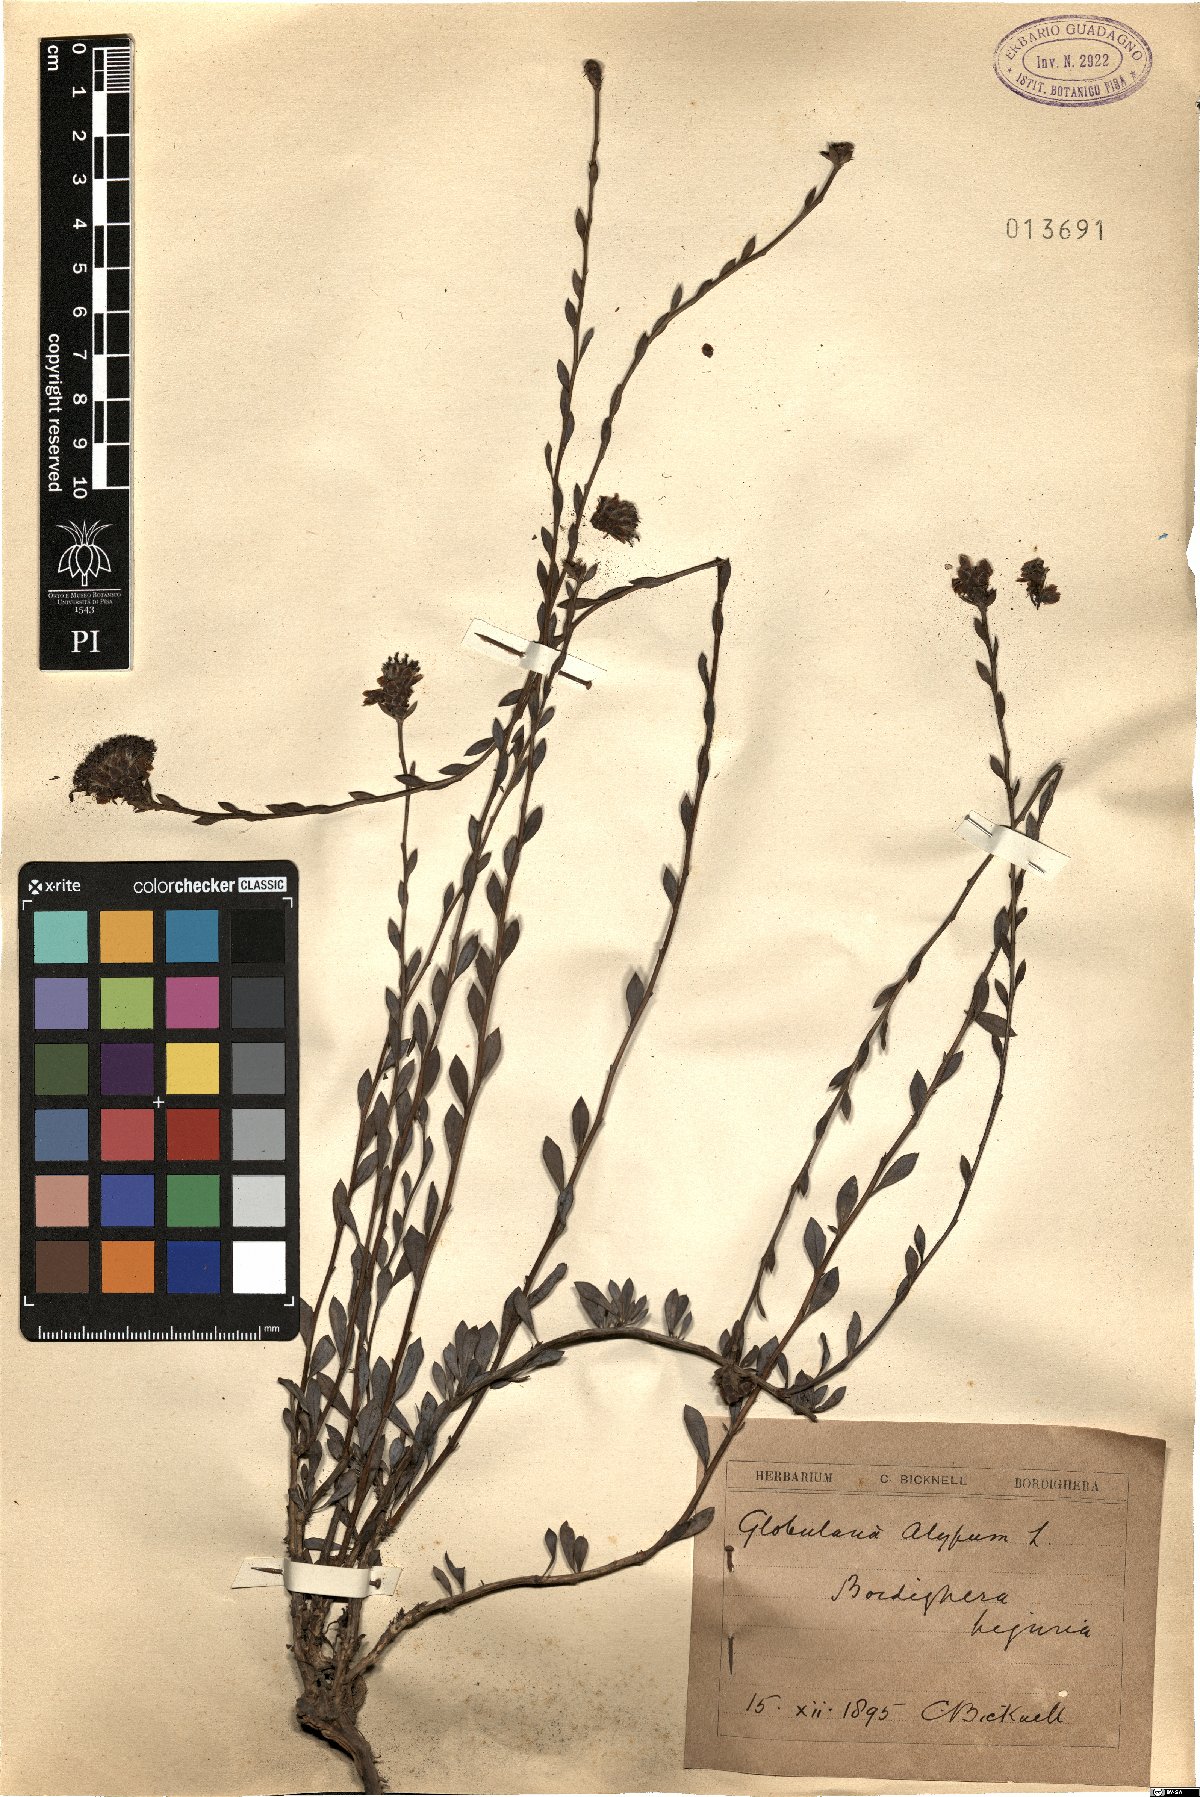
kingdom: Plantae
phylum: Tracheophyta
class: Magnoliopsida
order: Lamiales
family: Plantaginaceae
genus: Globularia
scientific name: Globularia alypum
